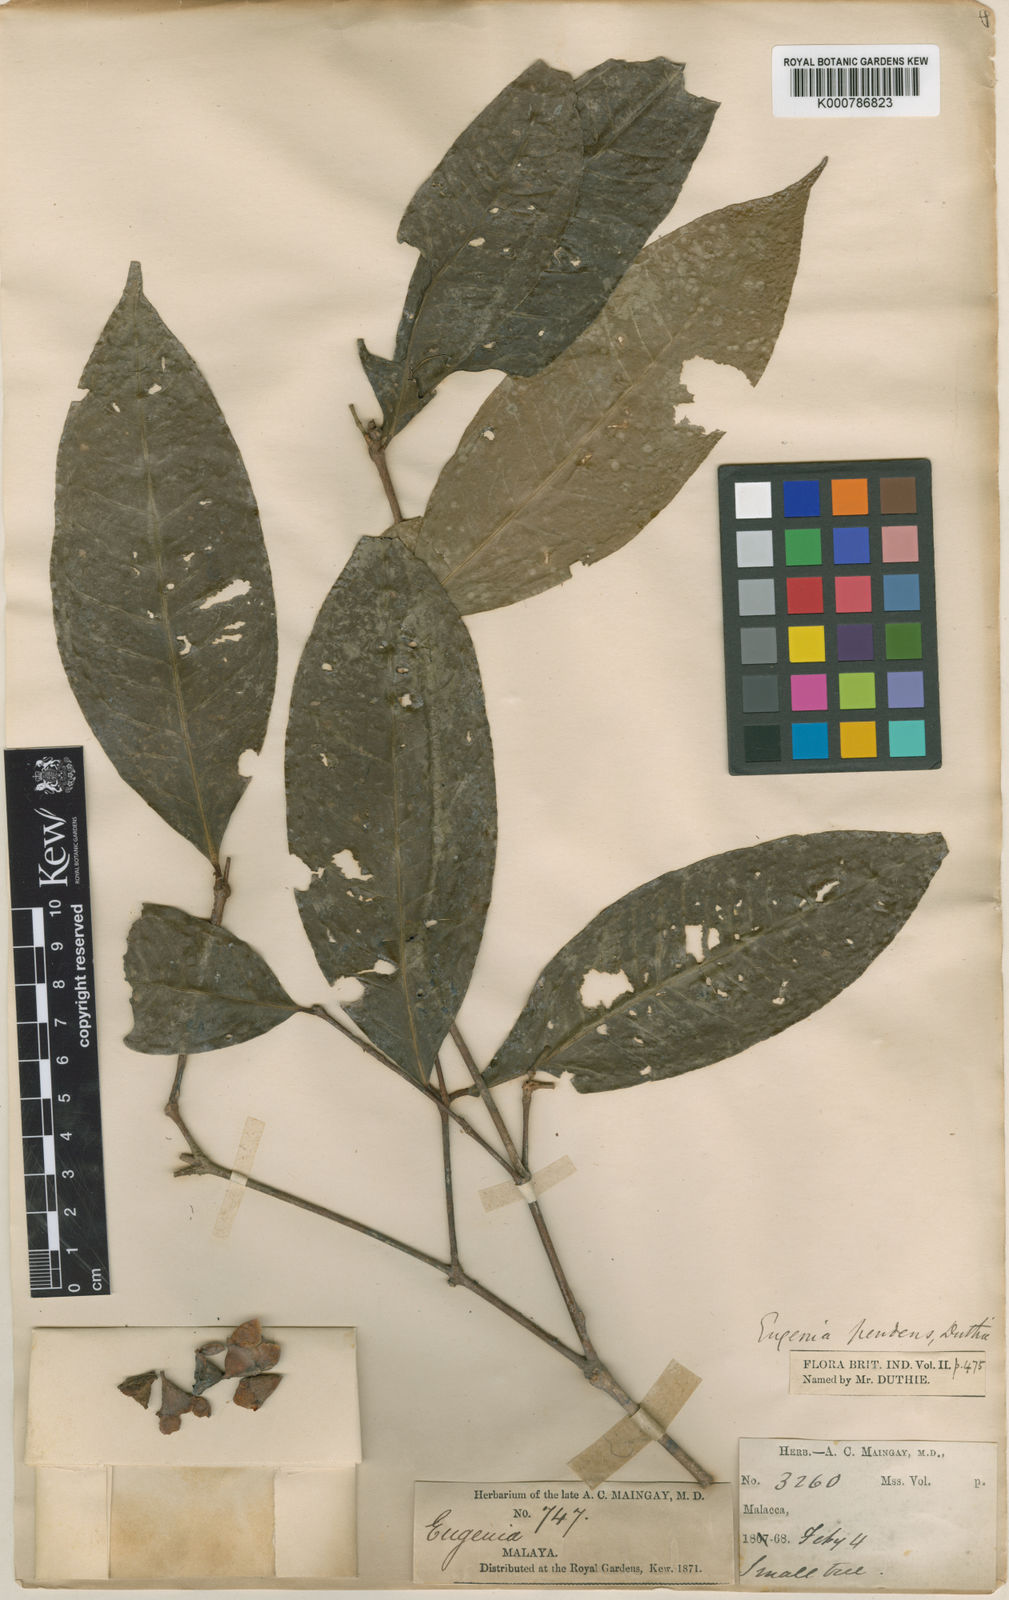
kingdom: Plantae
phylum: Tracheophyta
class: Magnoliopsida
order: Myrtales
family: Myrtaceae
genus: Syzygium
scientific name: Syzygium tiumanense
